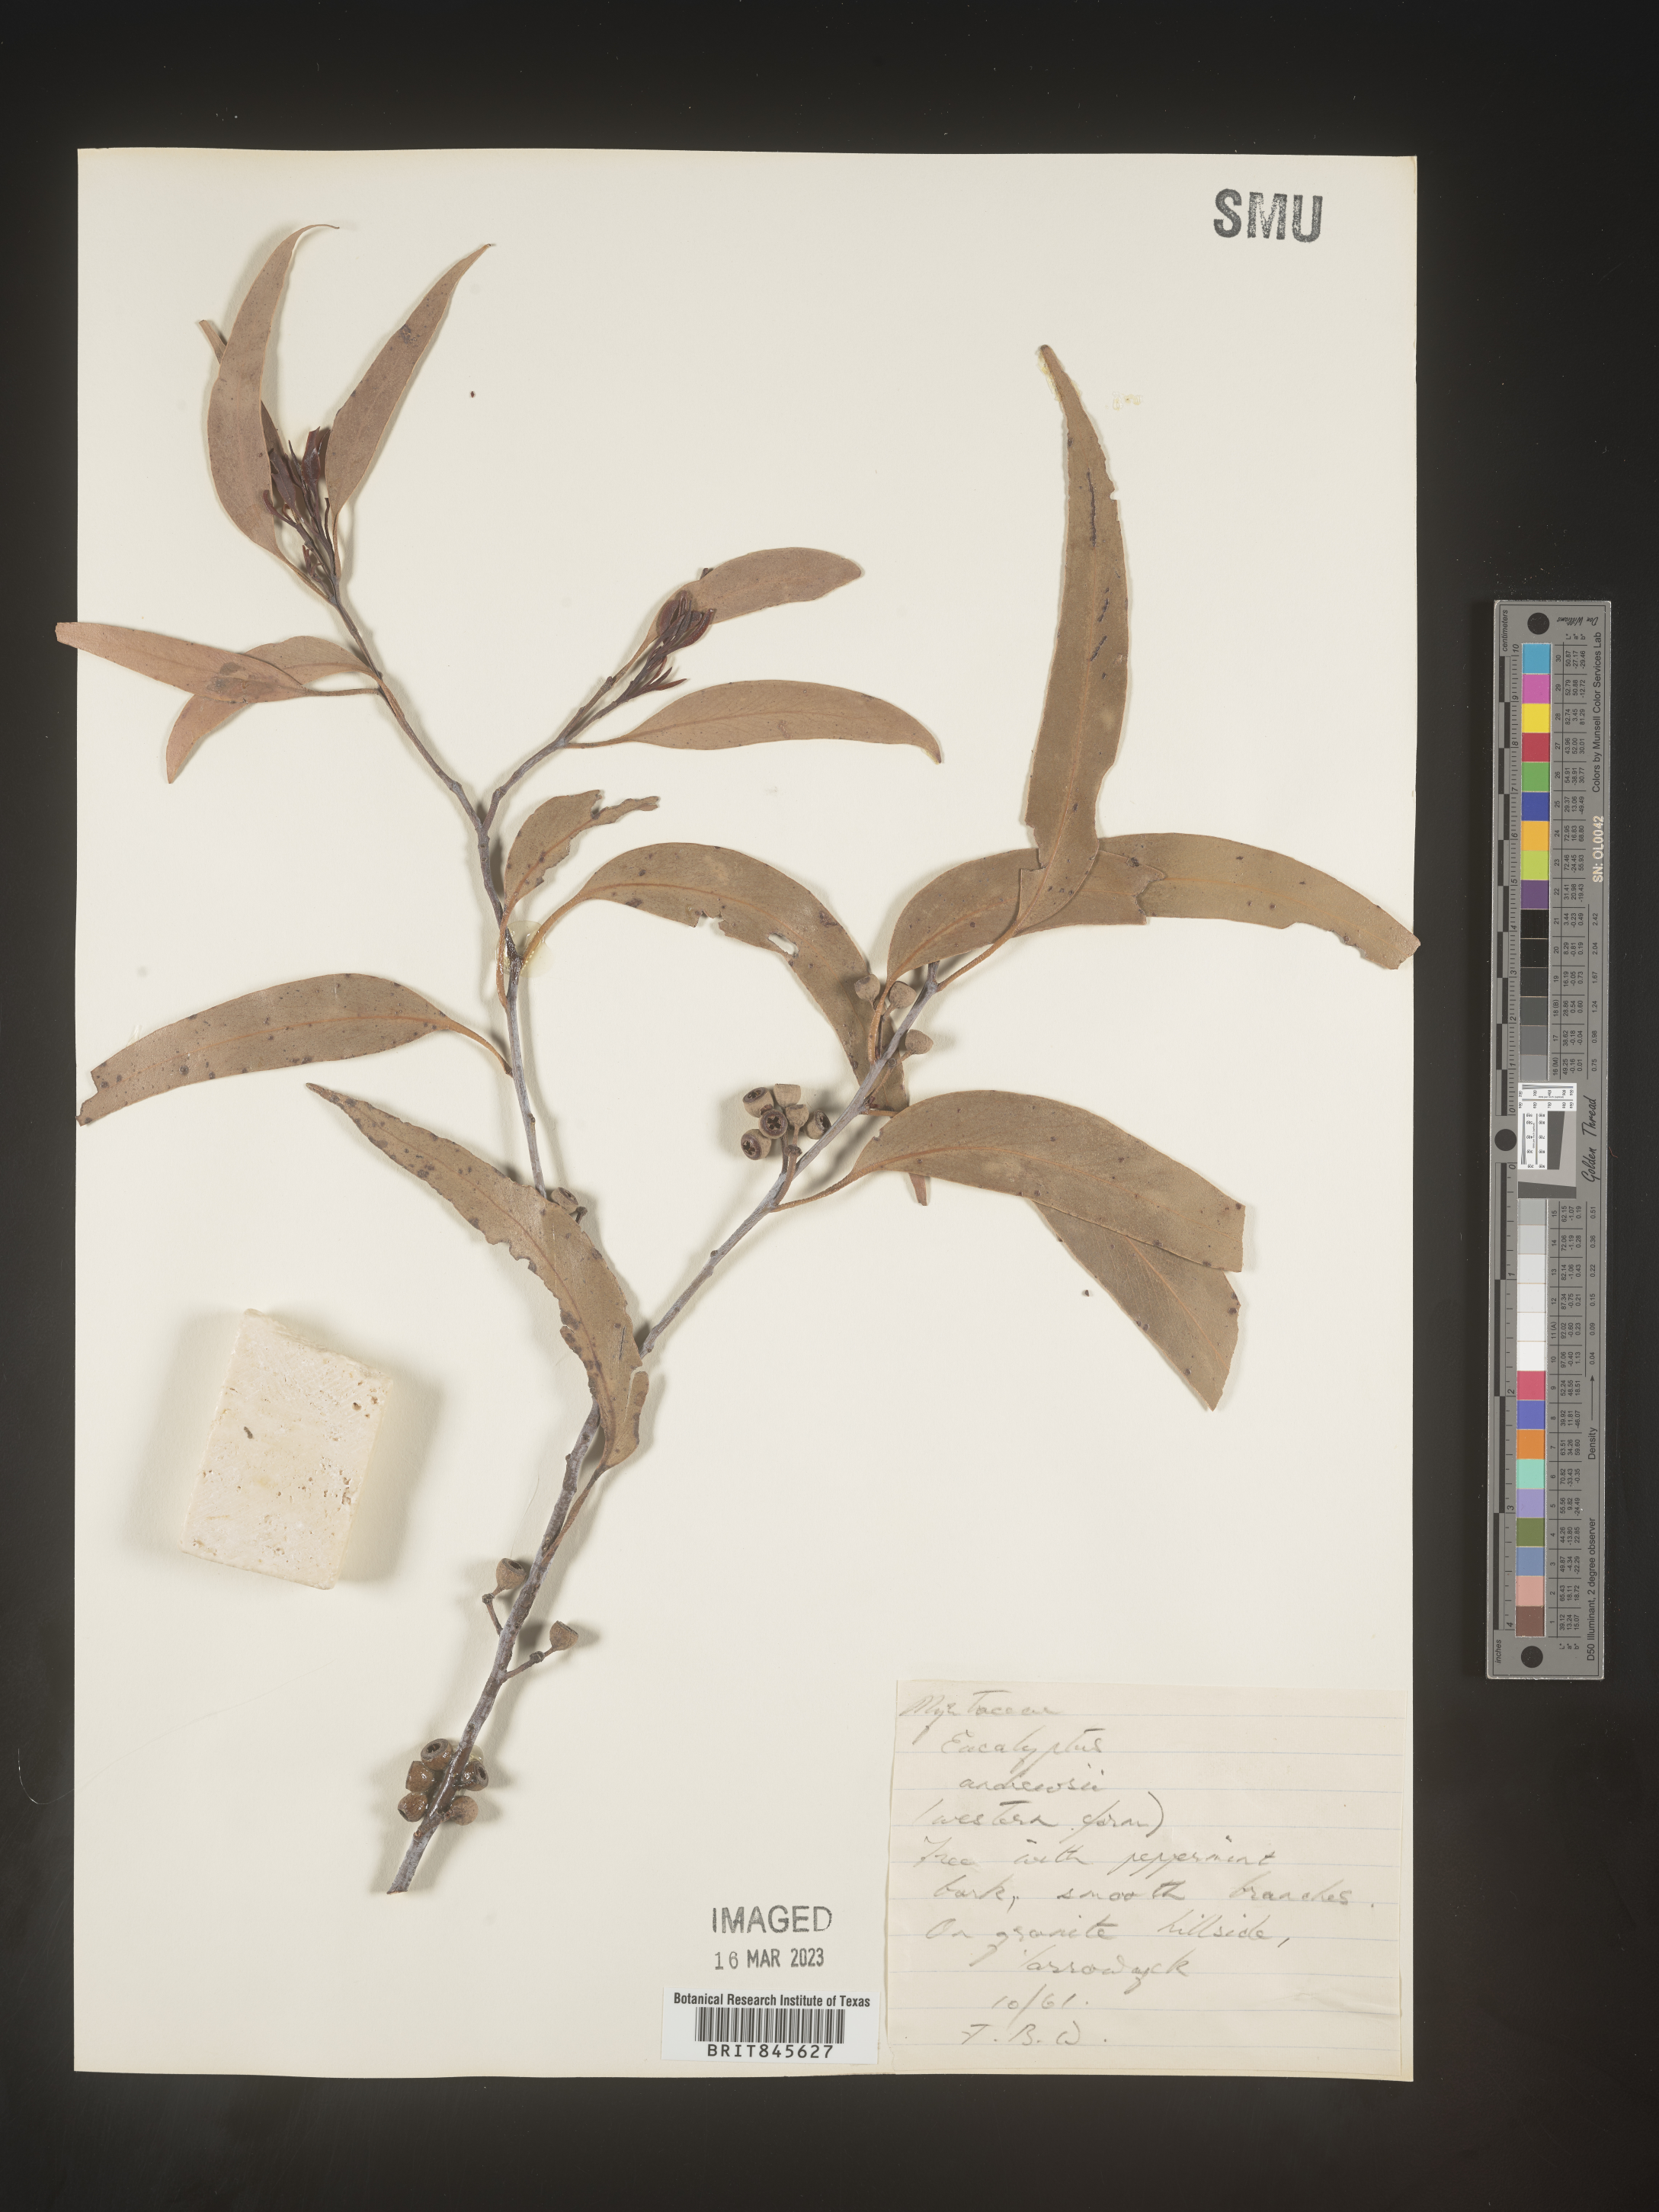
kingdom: Plantae
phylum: Tracheophyta
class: Magnoliopsida
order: Myrtales
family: Myrtaceae
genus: Eucalyptus
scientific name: Eucalyptus
